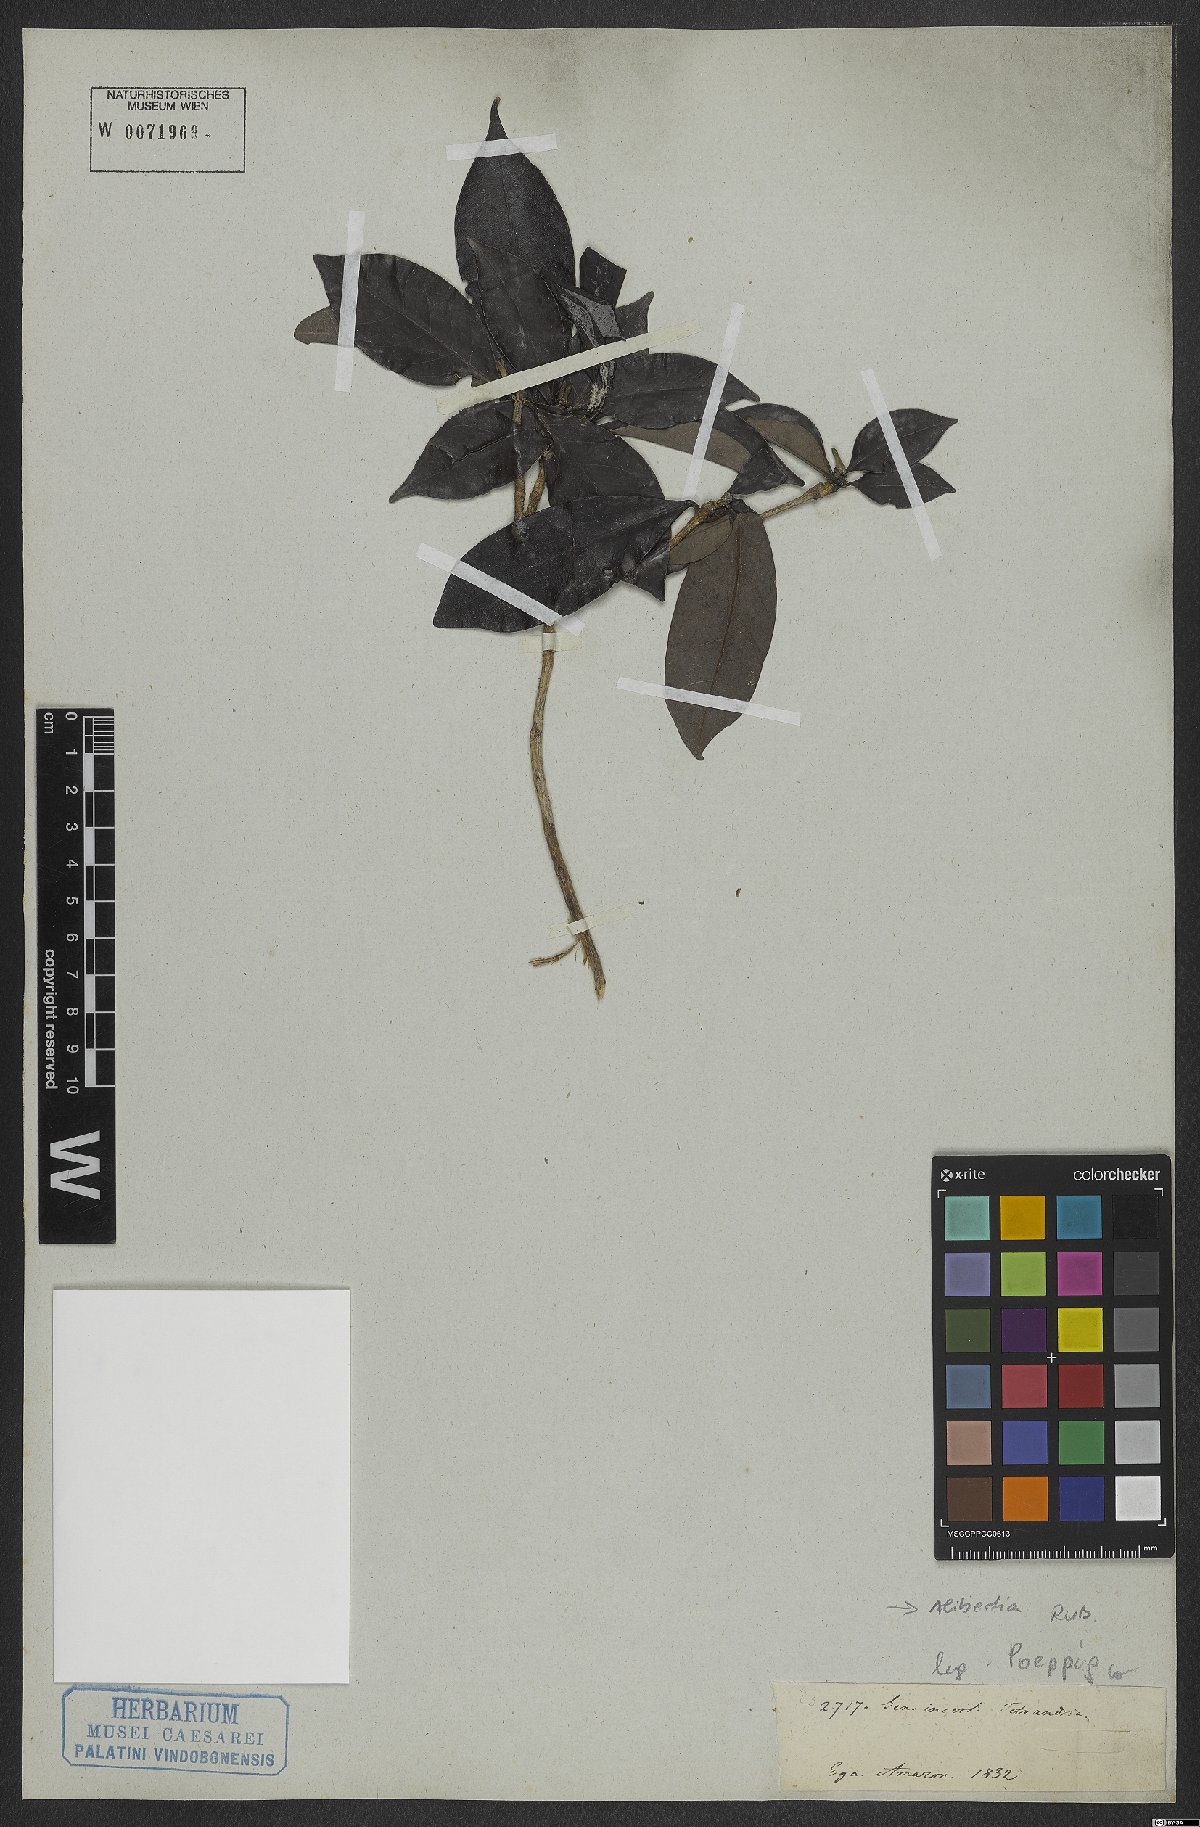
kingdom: Plantae
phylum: Tracheophyta
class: Magnoliopsida
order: Gentianales
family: Rubiaceae
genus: Alibertia
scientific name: Alibertia
